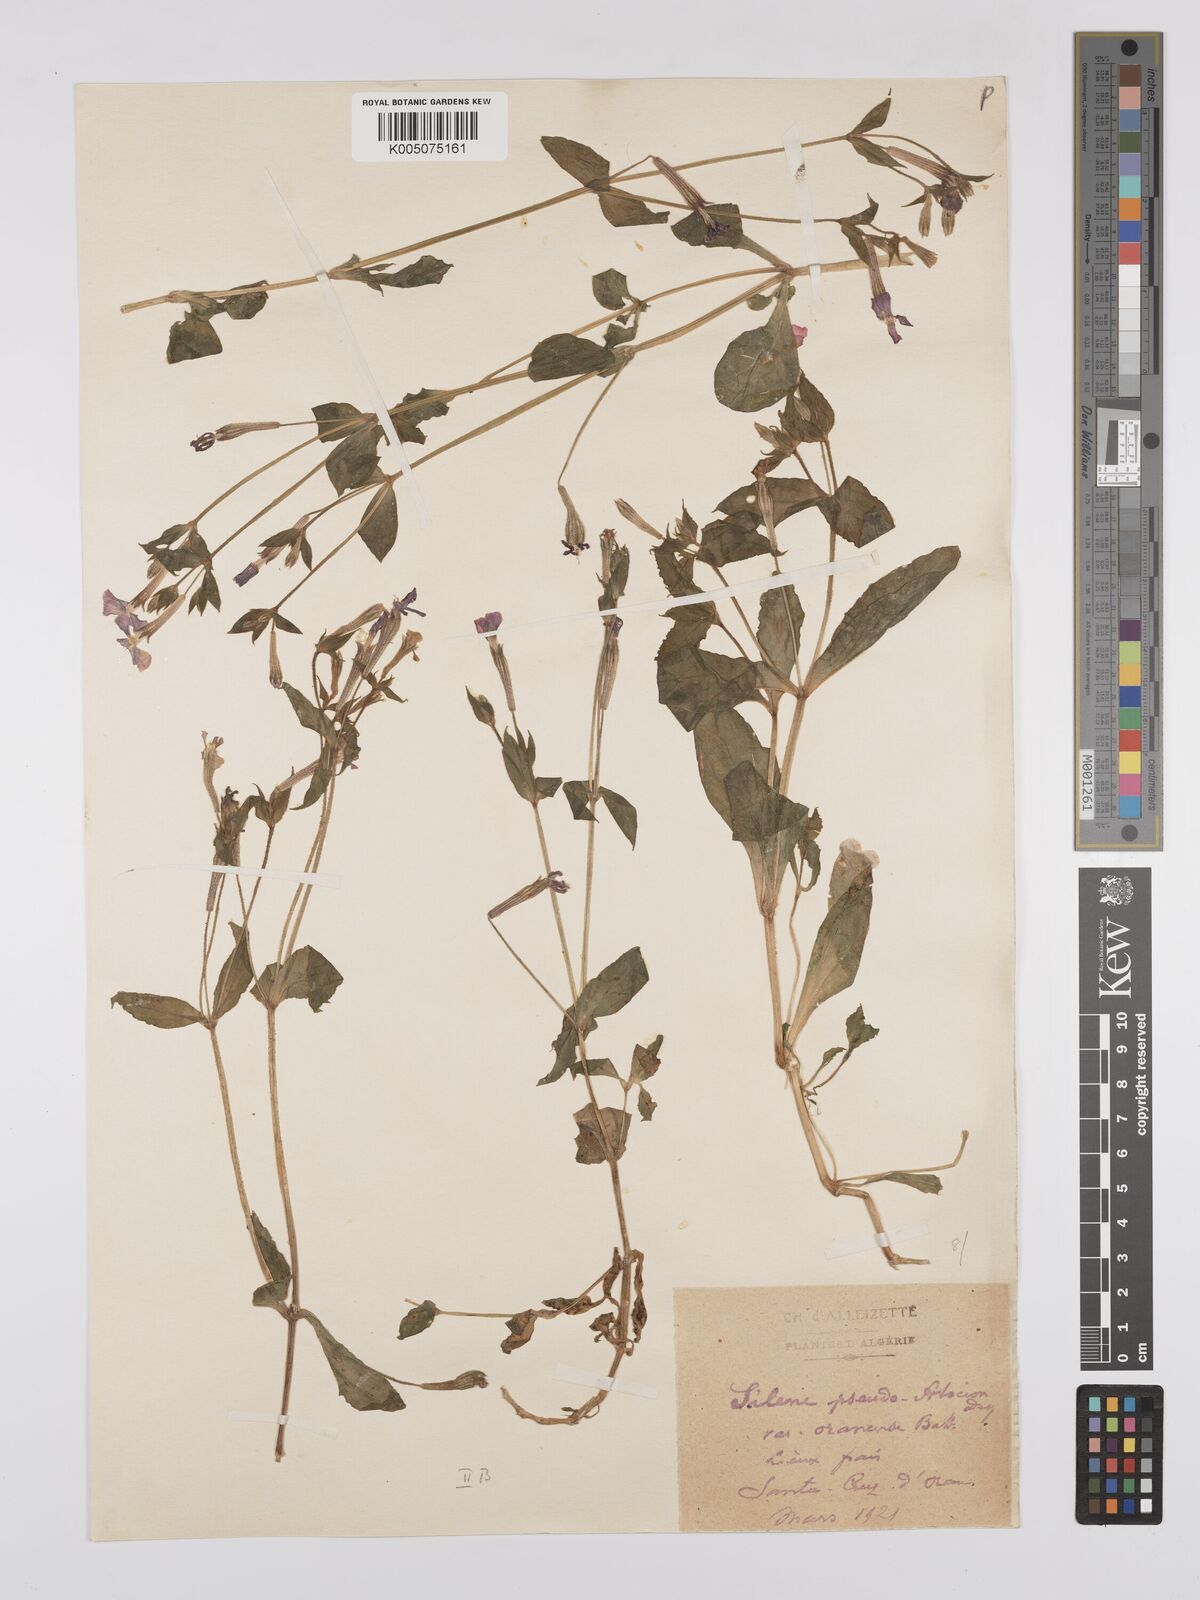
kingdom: Plantae
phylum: Tracheophyta
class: Magnoliopsida
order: Caryophyllales
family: Caryophyllaceae
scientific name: Caryophyllaceae
